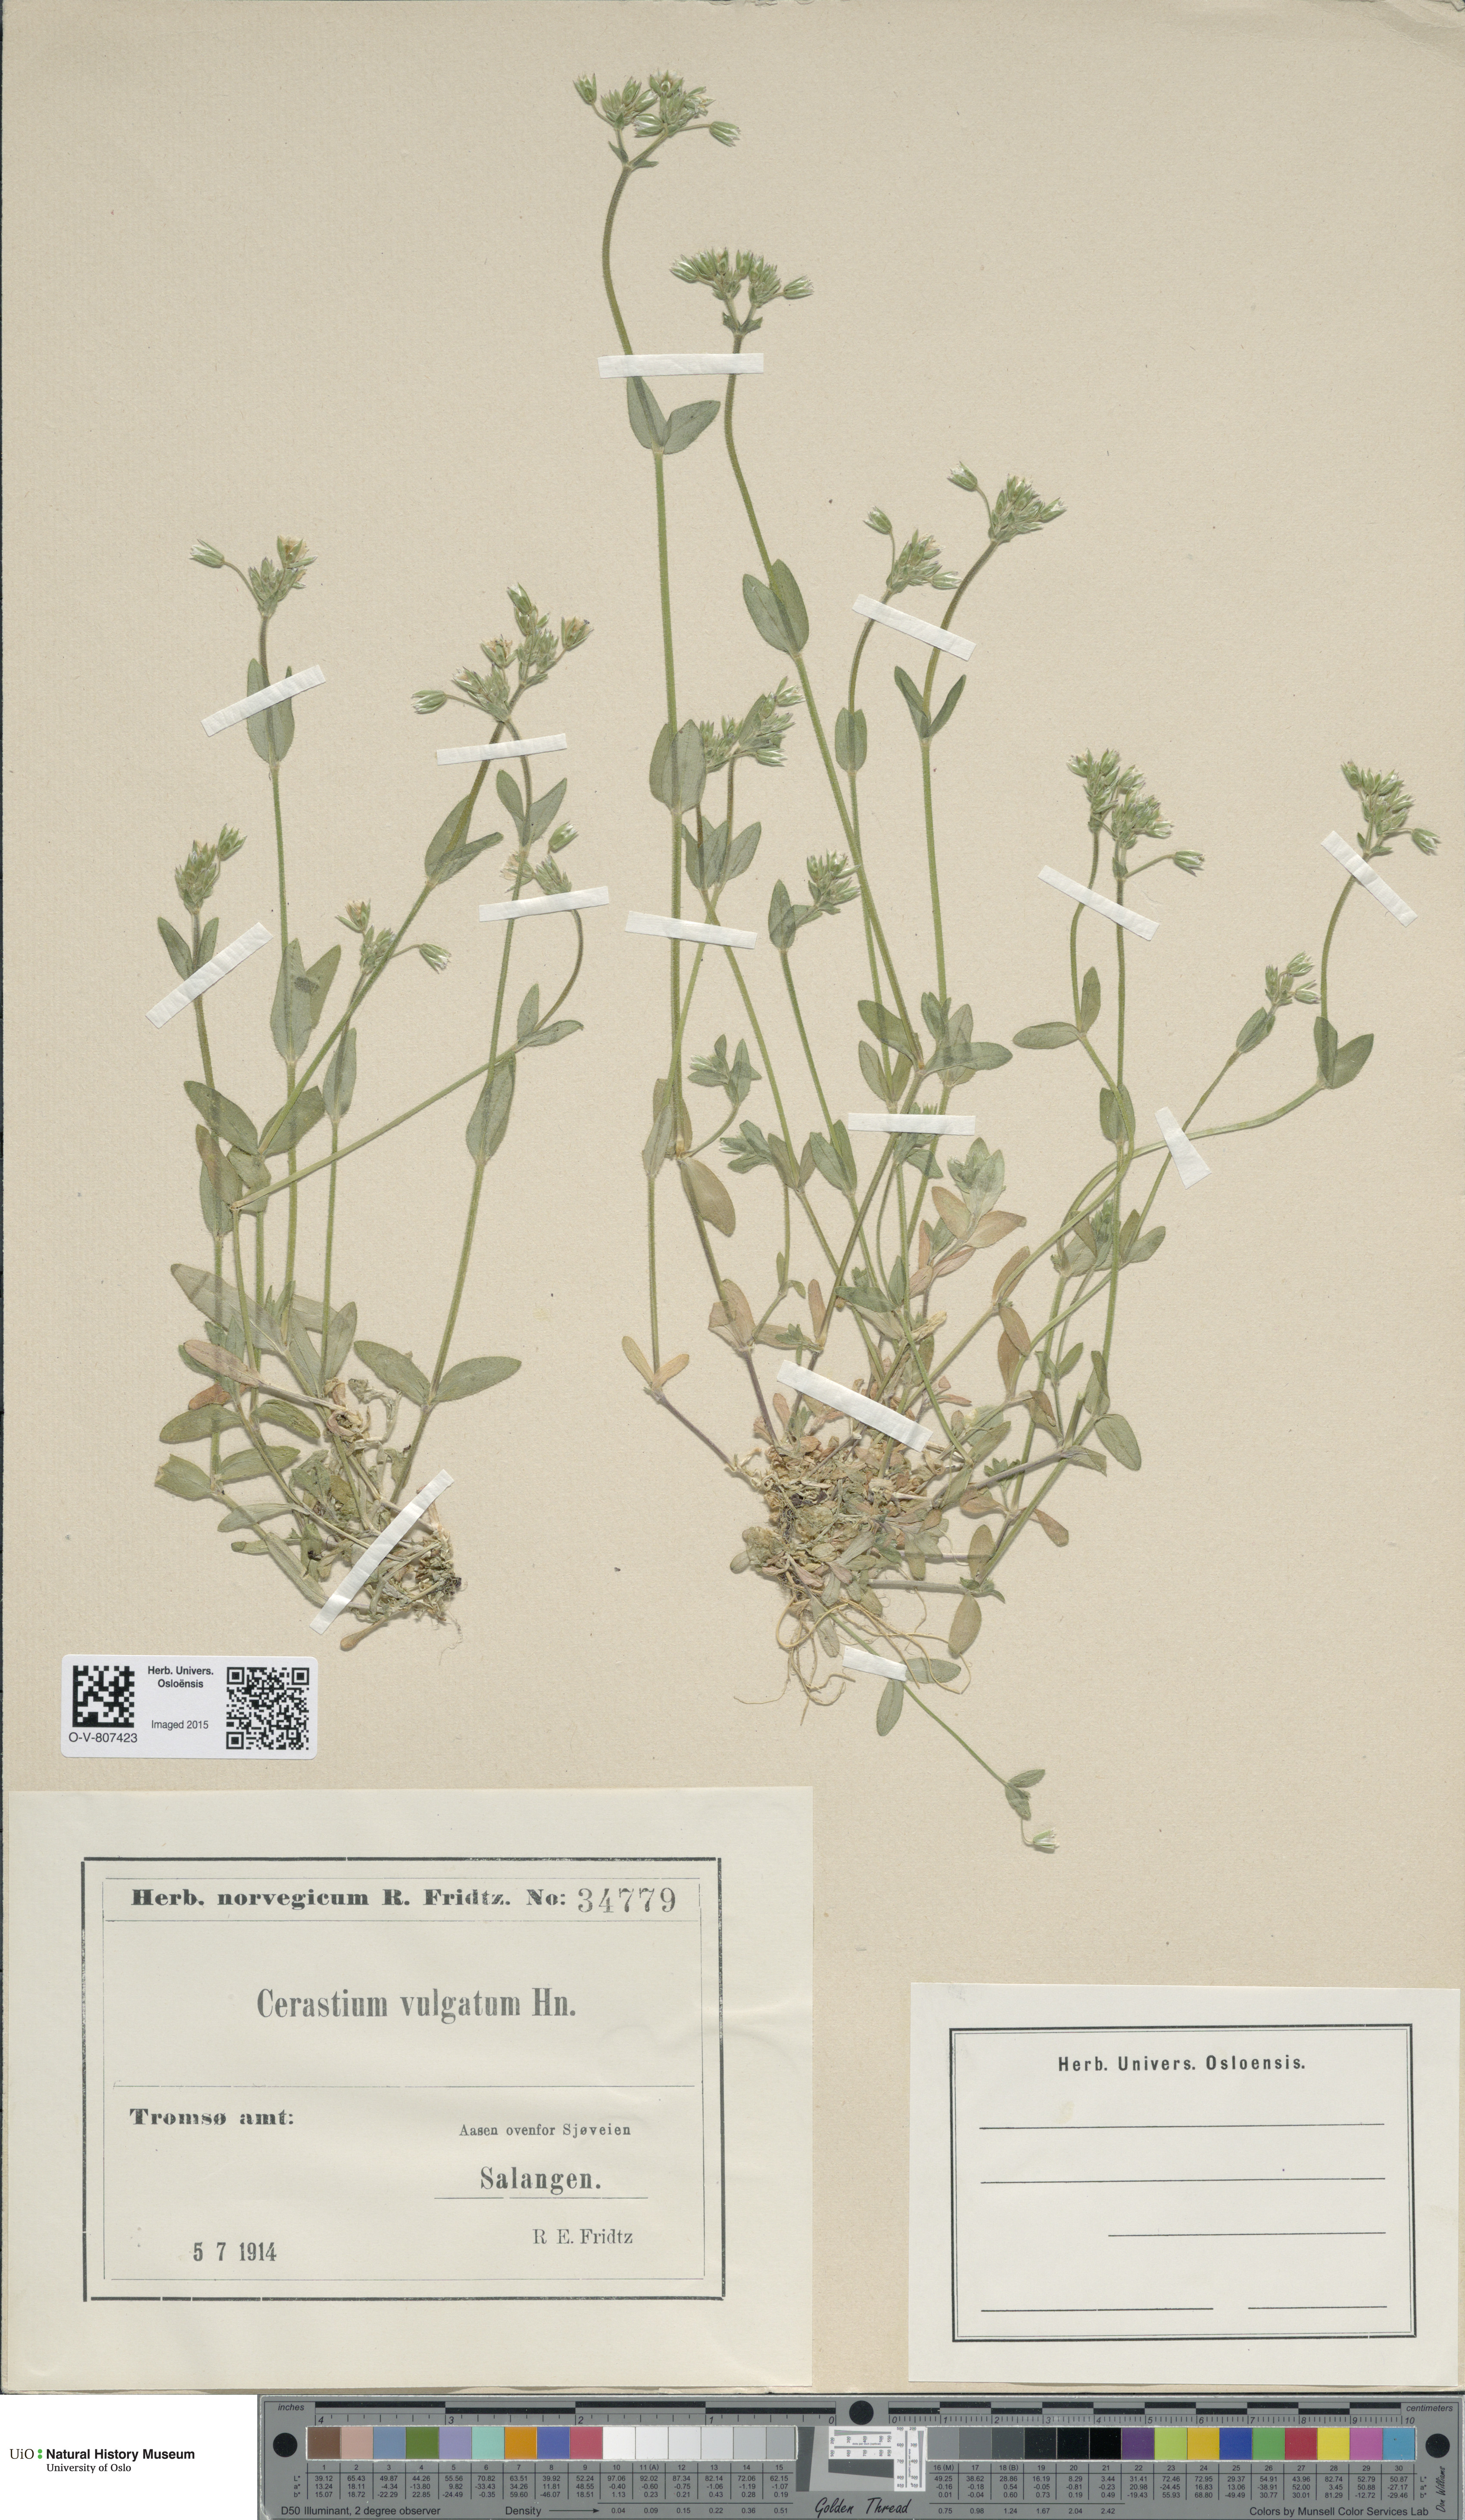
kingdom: Plantae
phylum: Tracheophyta
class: Magnoliopsida
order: Caryophyllales
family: Caryophyllaceae
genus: Cerastium
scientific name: Cerastium holosteoides
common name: Big chickweed
